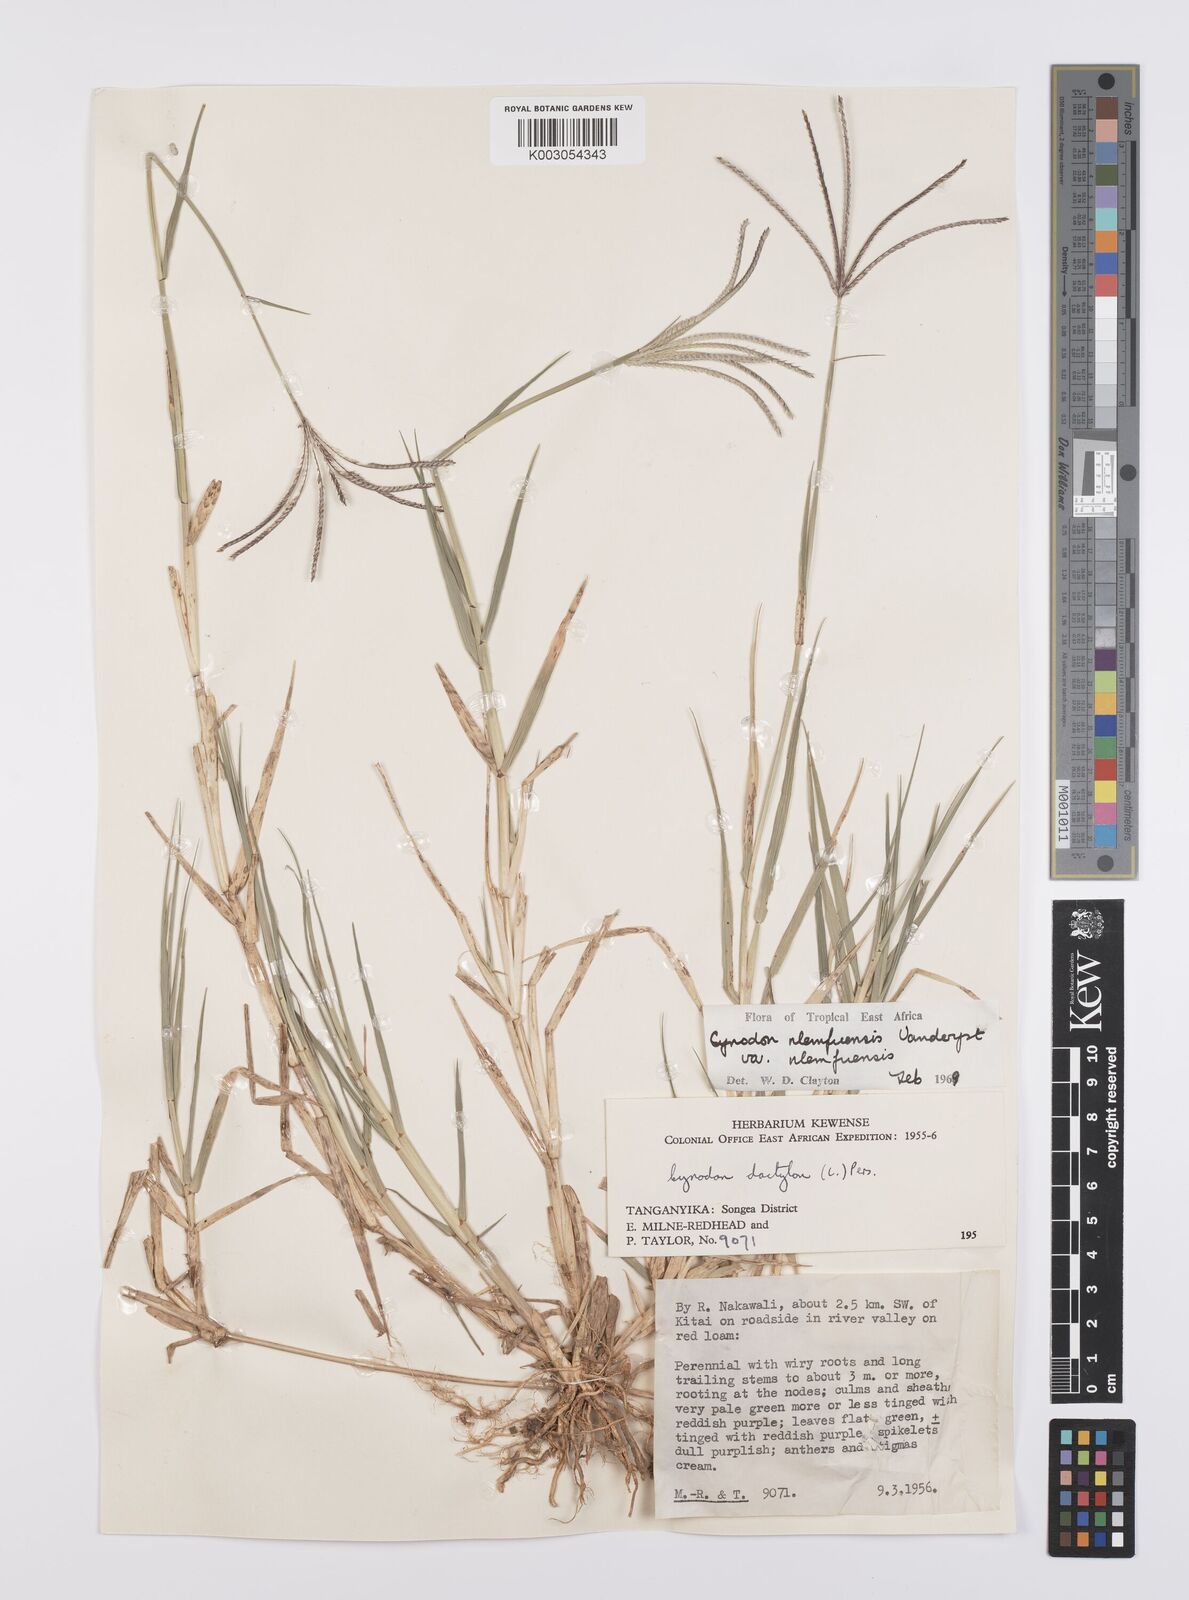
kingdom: Plantae
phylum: Tracheophyta
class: Liliopsida
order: Poales
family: Poaceae
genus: Cynodon
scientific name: Cynodon nlemfuensis
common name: African bermudagrass
